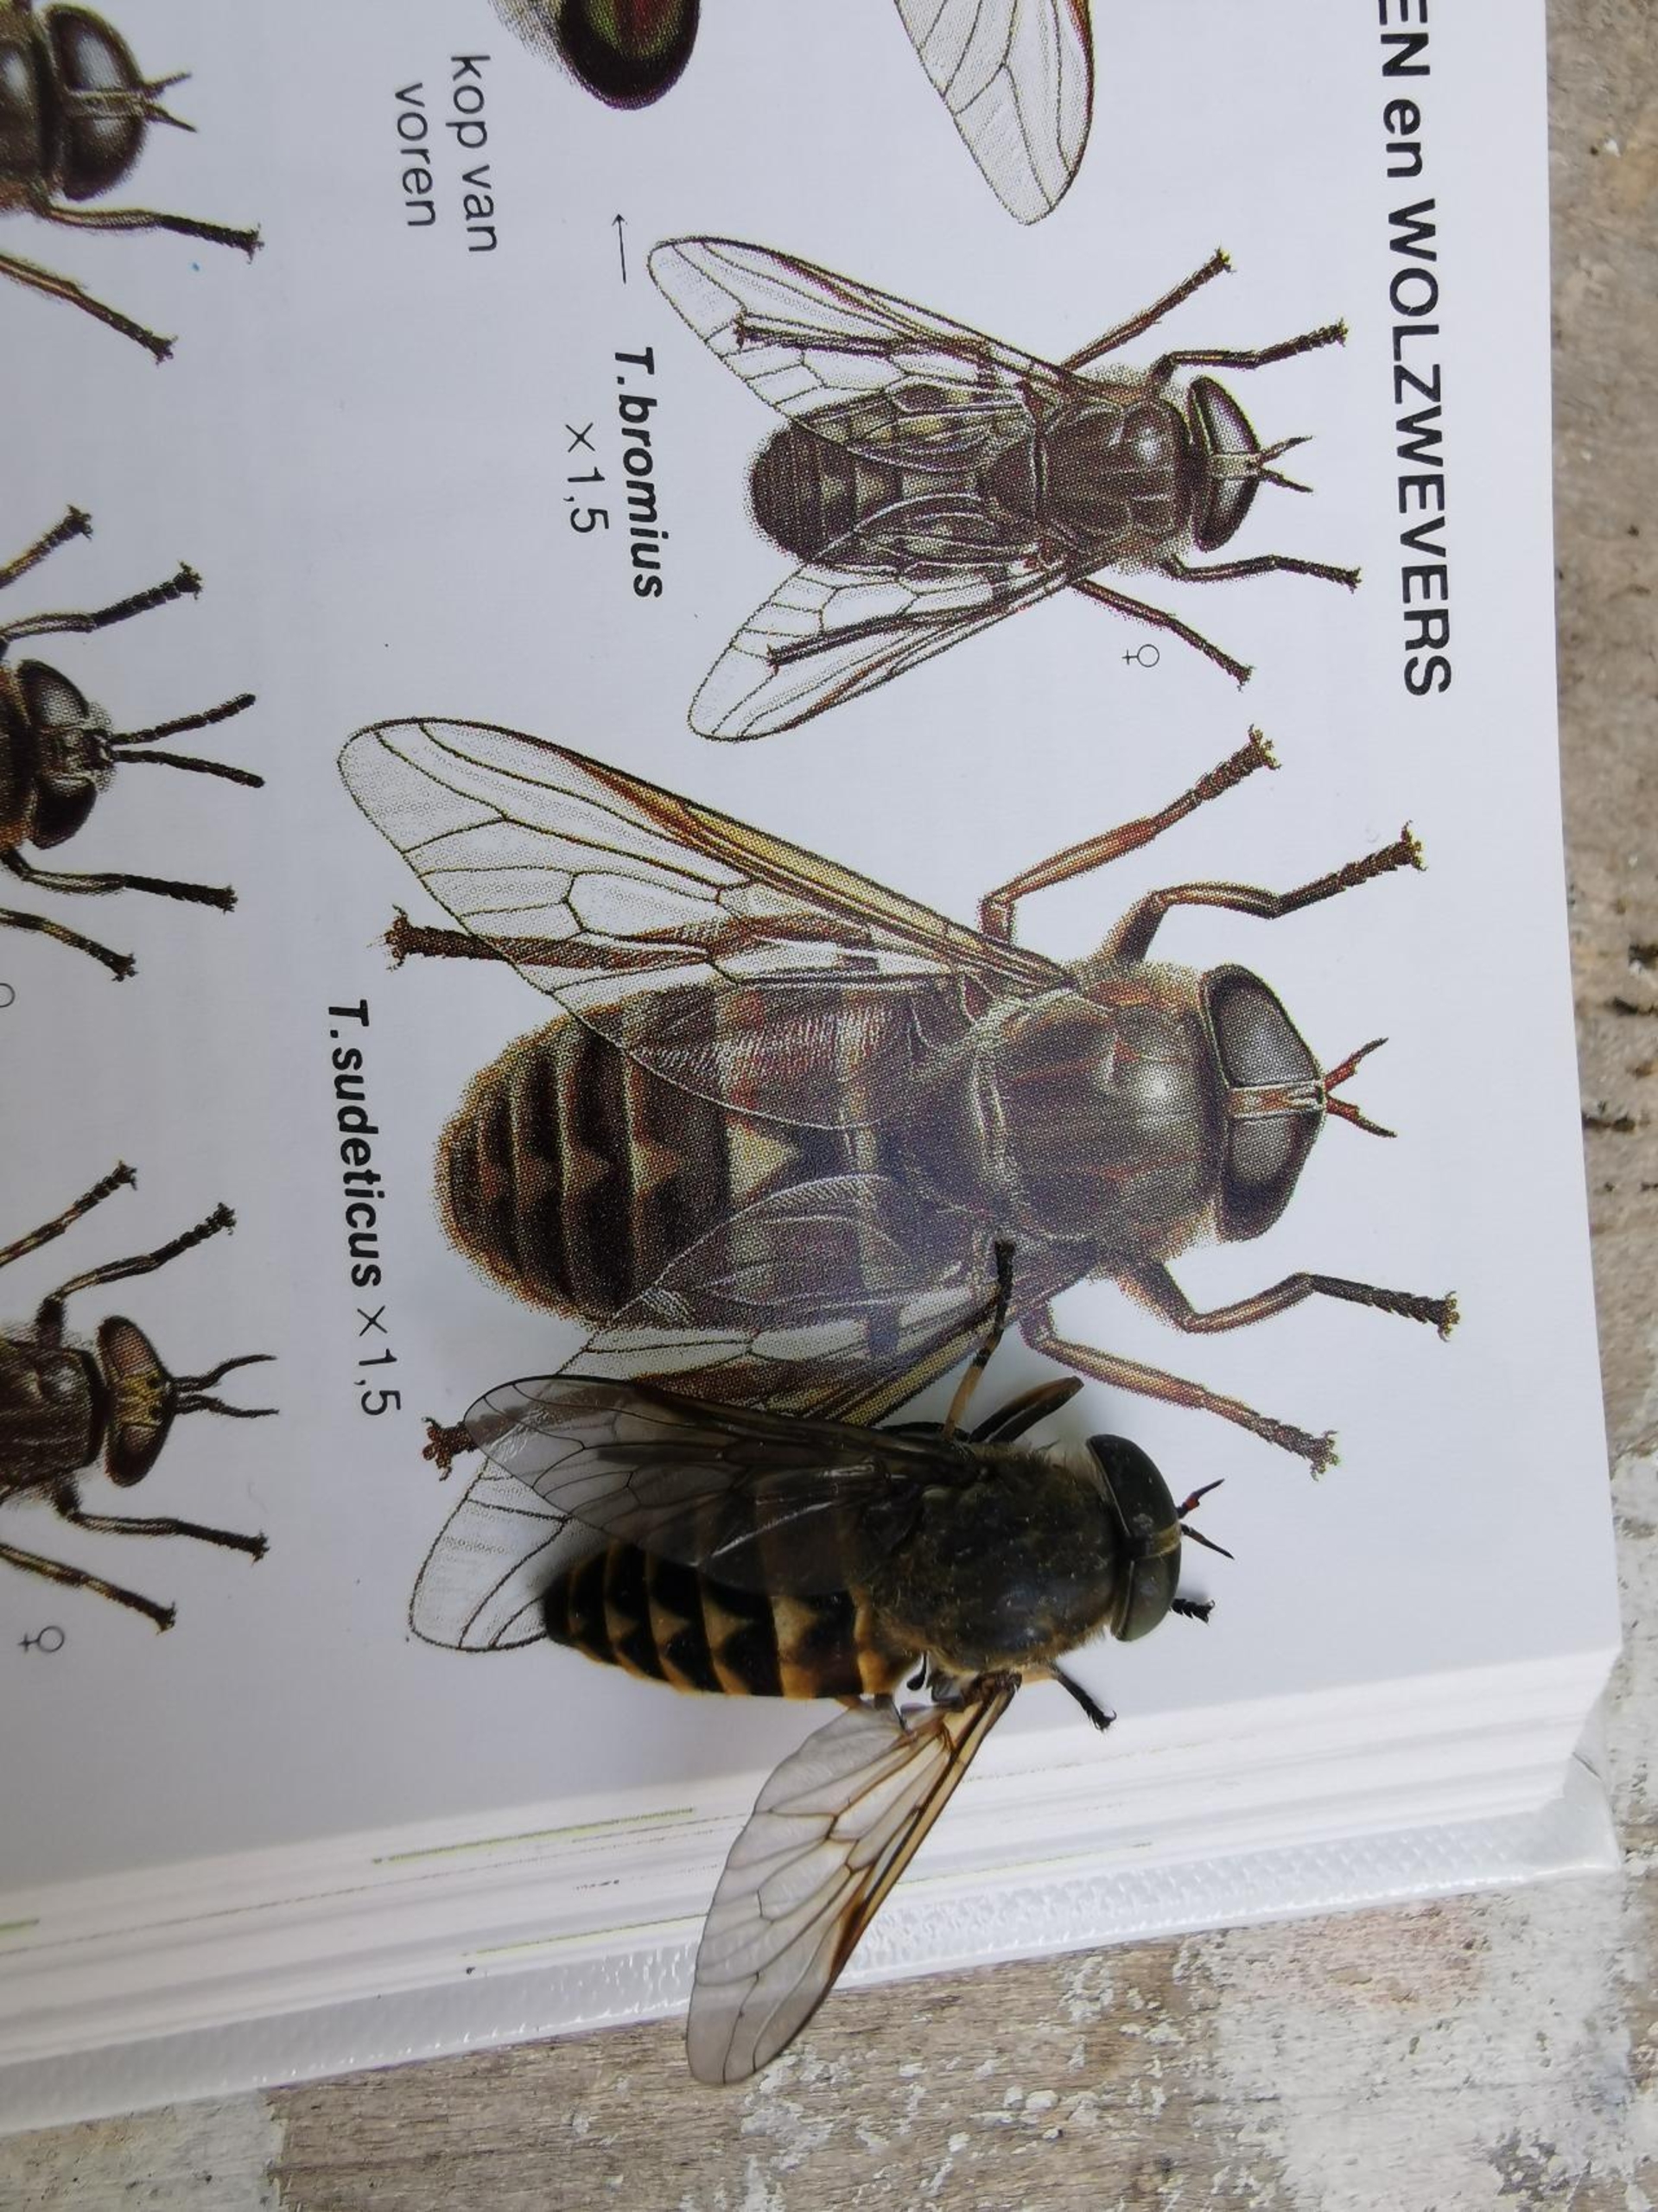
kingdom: Animalia
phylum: Arthropoda
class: Insecta
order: Diptera
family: Tabanidae
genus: Tabanus
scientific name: Tabanus sudeticus
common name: Hesteklæg
